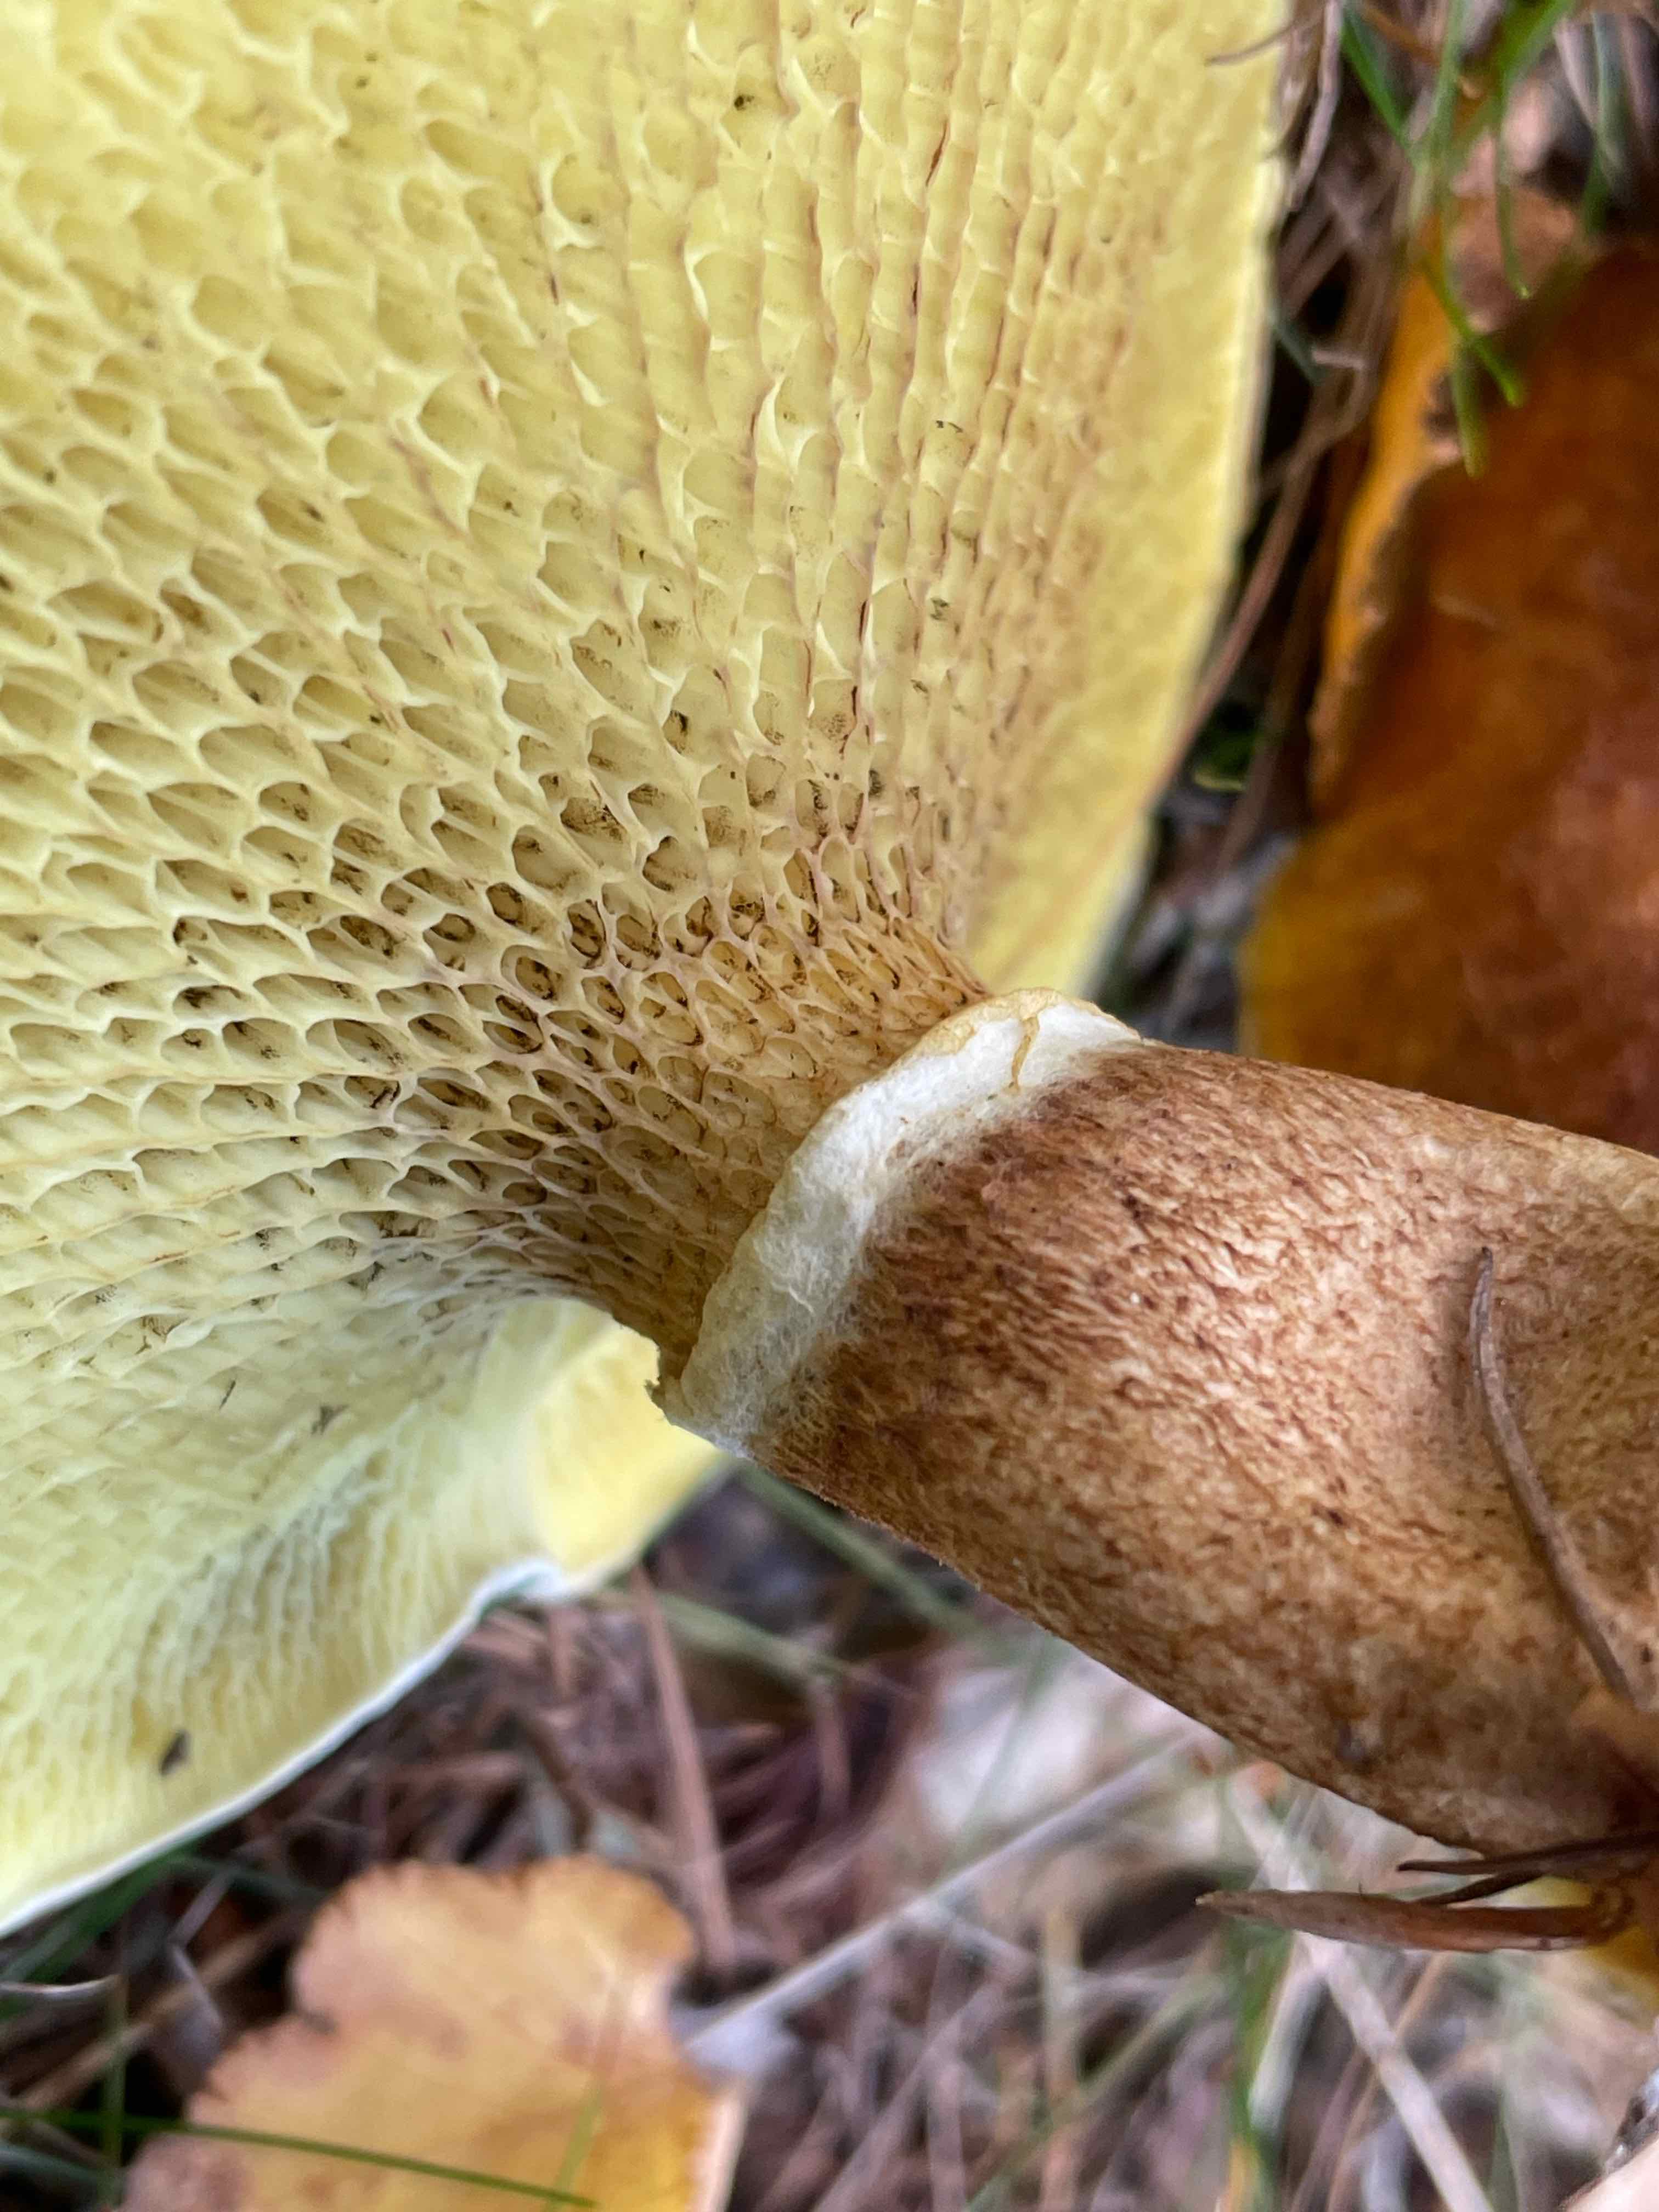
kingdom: Fungi
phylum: Basidiomycota
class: Agaricomycetes
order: Boletales
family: Suillaceae
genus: Suillus
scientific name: Suillus cavipes
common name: hulstokket slimrørhat
